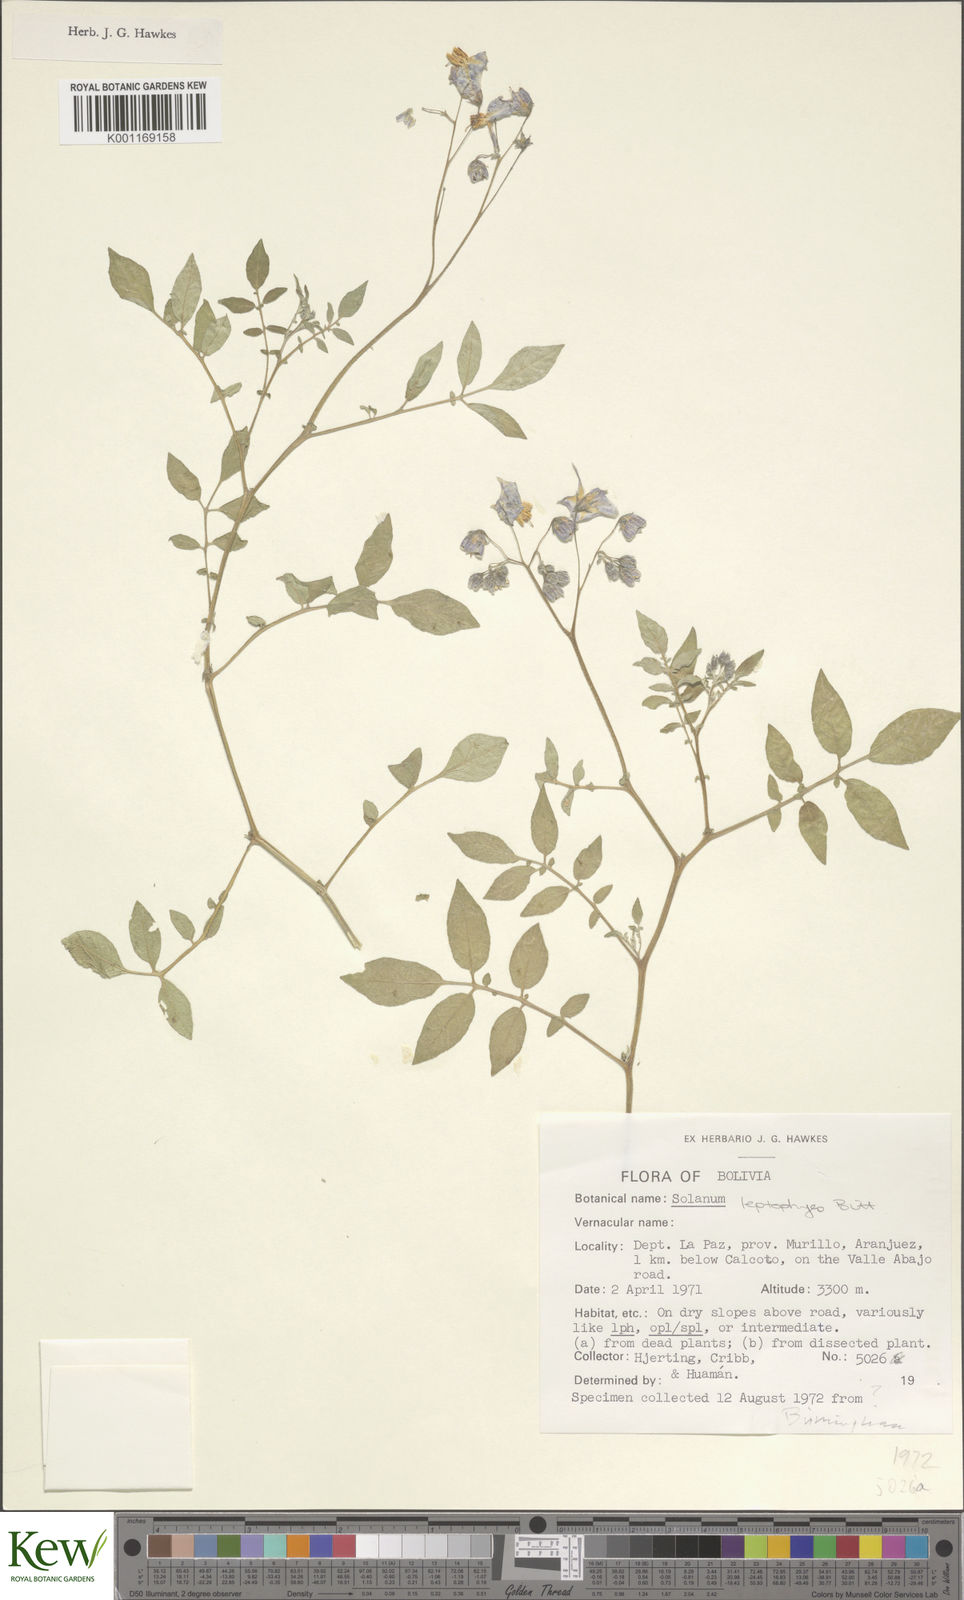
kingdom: Plantae
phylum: Tracheophyta
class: Magnoliopsida
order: Solanales
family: Solanaceae
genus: Solanum
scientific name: Solanum brevicaule
